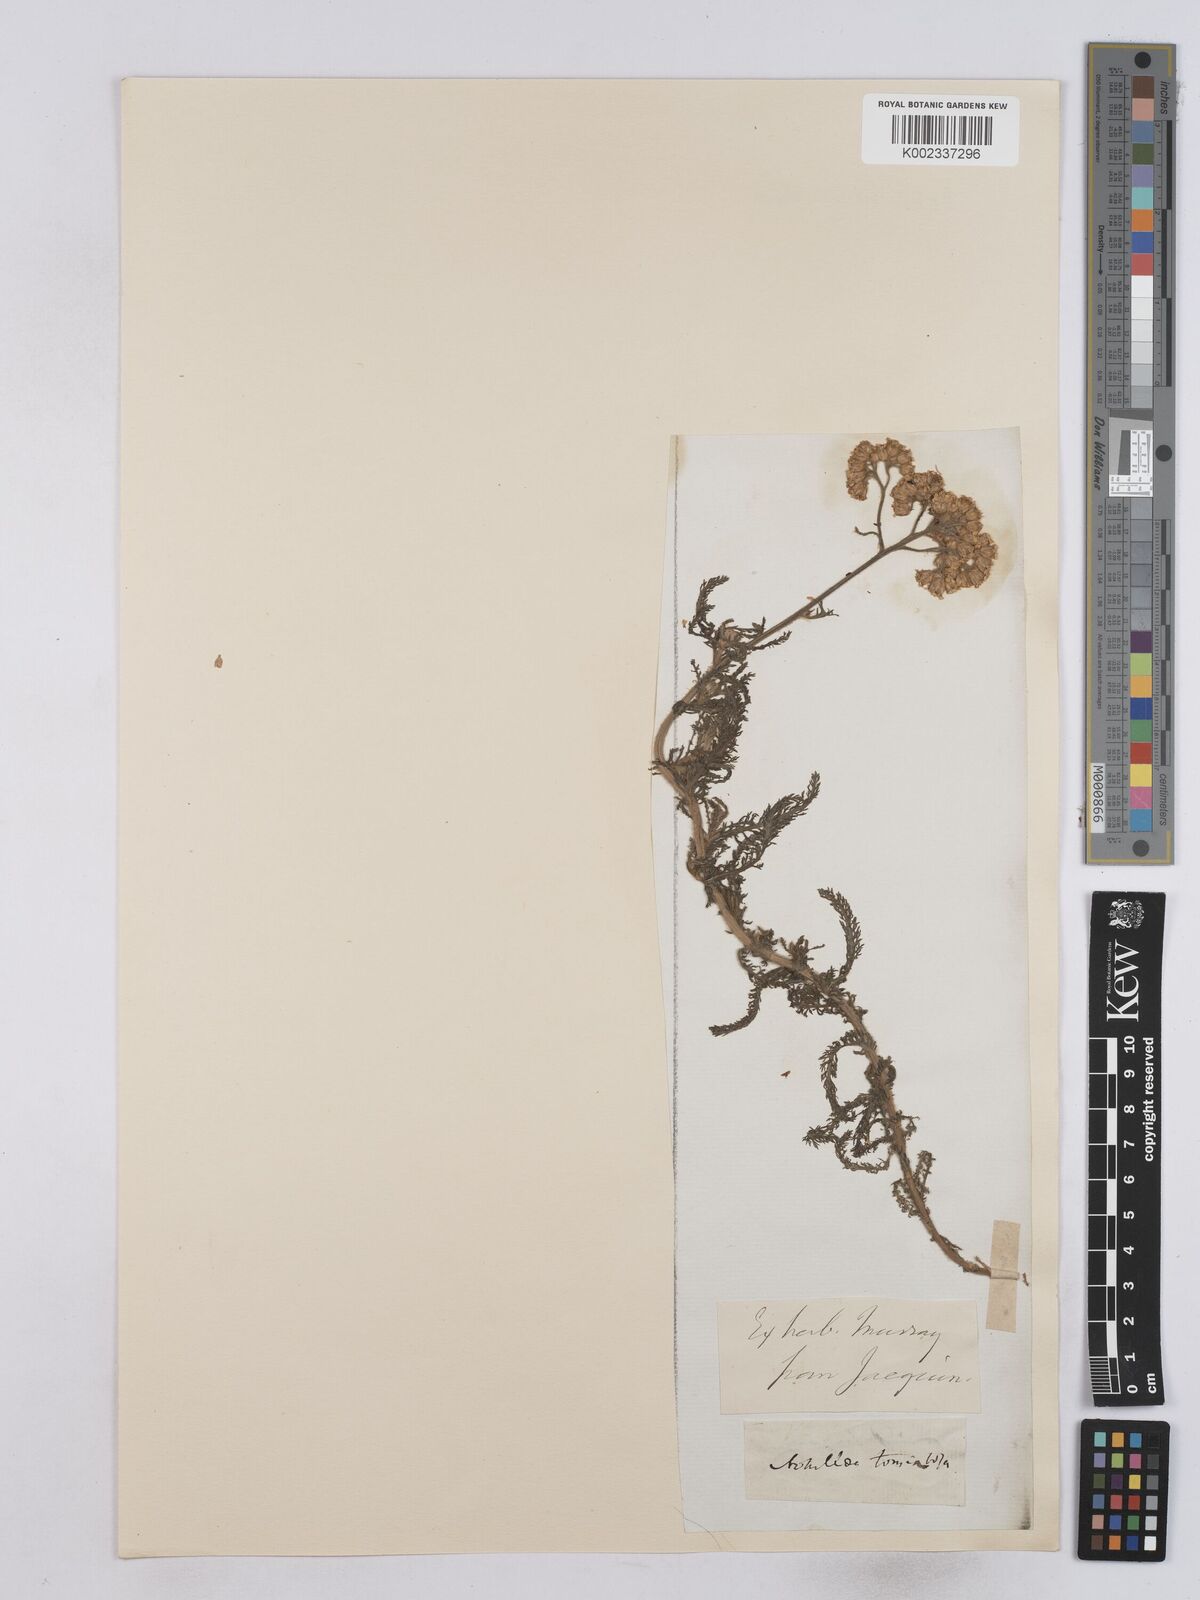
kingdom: Plantae
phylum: Tracheophyta
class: Magnoliopsida
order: Asterales
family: Asteraceae
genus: Achillea
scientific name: Achillea tomentosa
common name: Yellow milfoil
